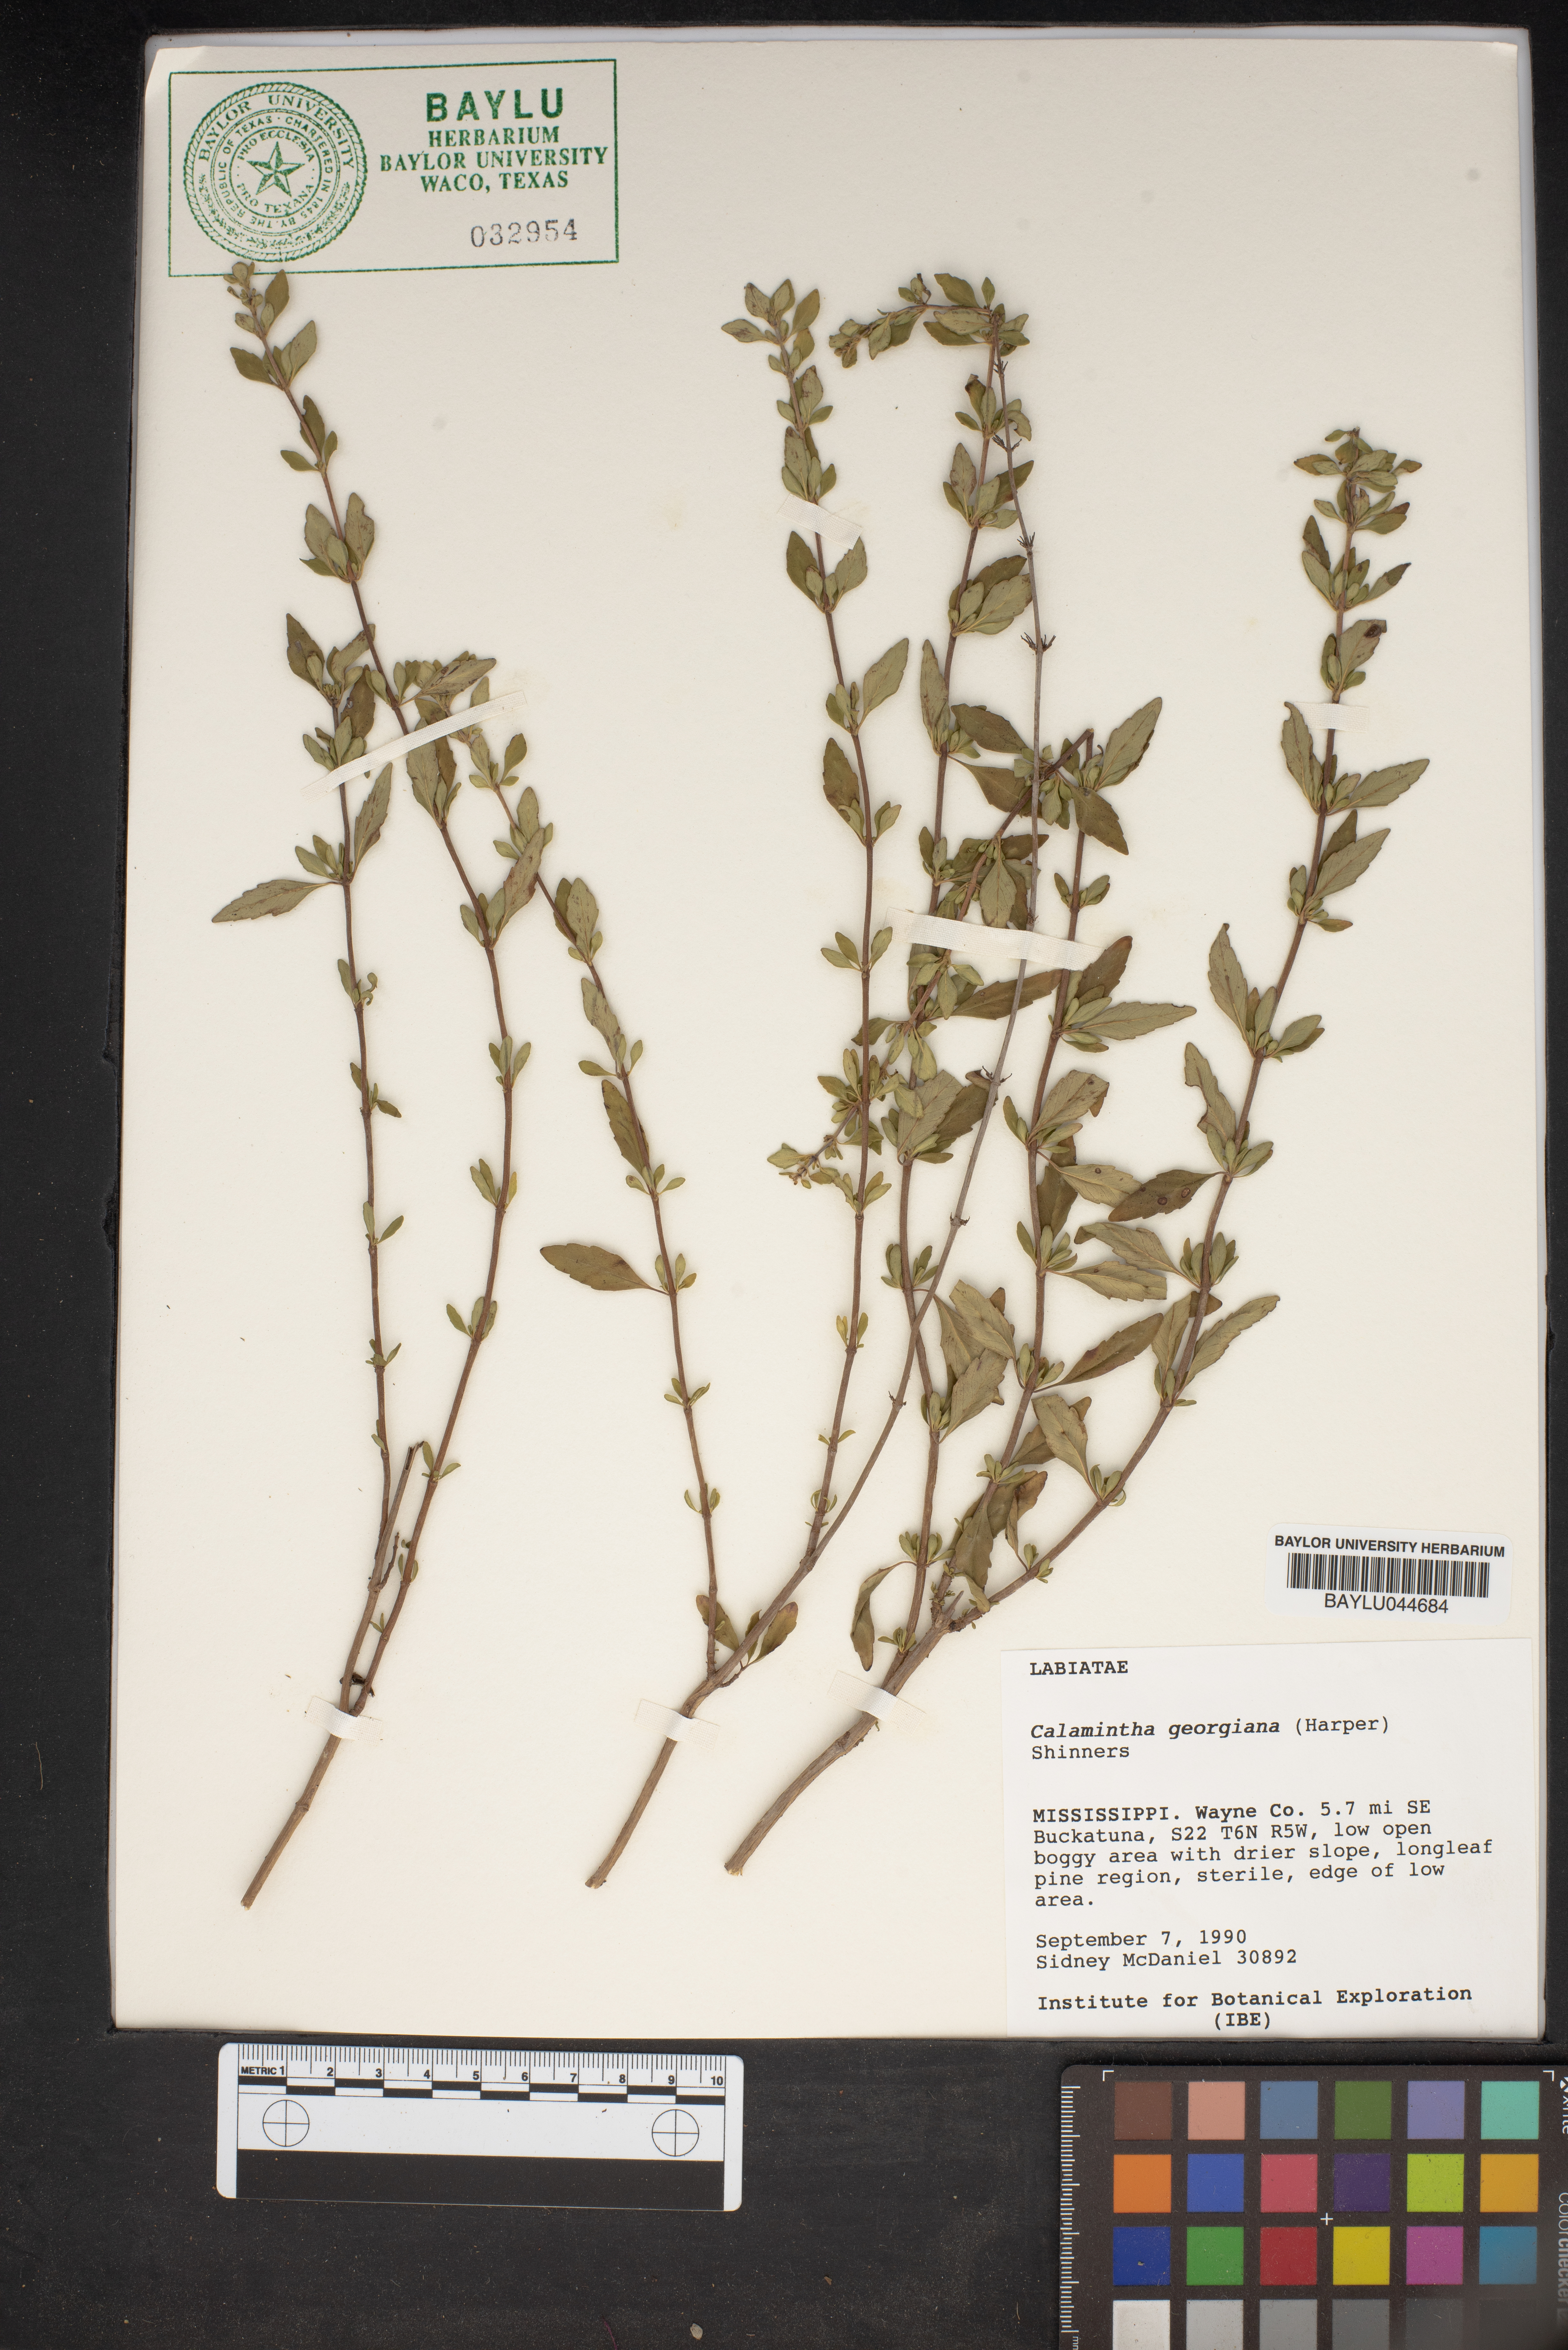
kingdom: Plantae
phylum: Tracheophyta
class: Magnoliopsida
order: Lamiales
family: Lamiaceae
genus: Clinopodium
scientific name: Clinopodium carolinianum
